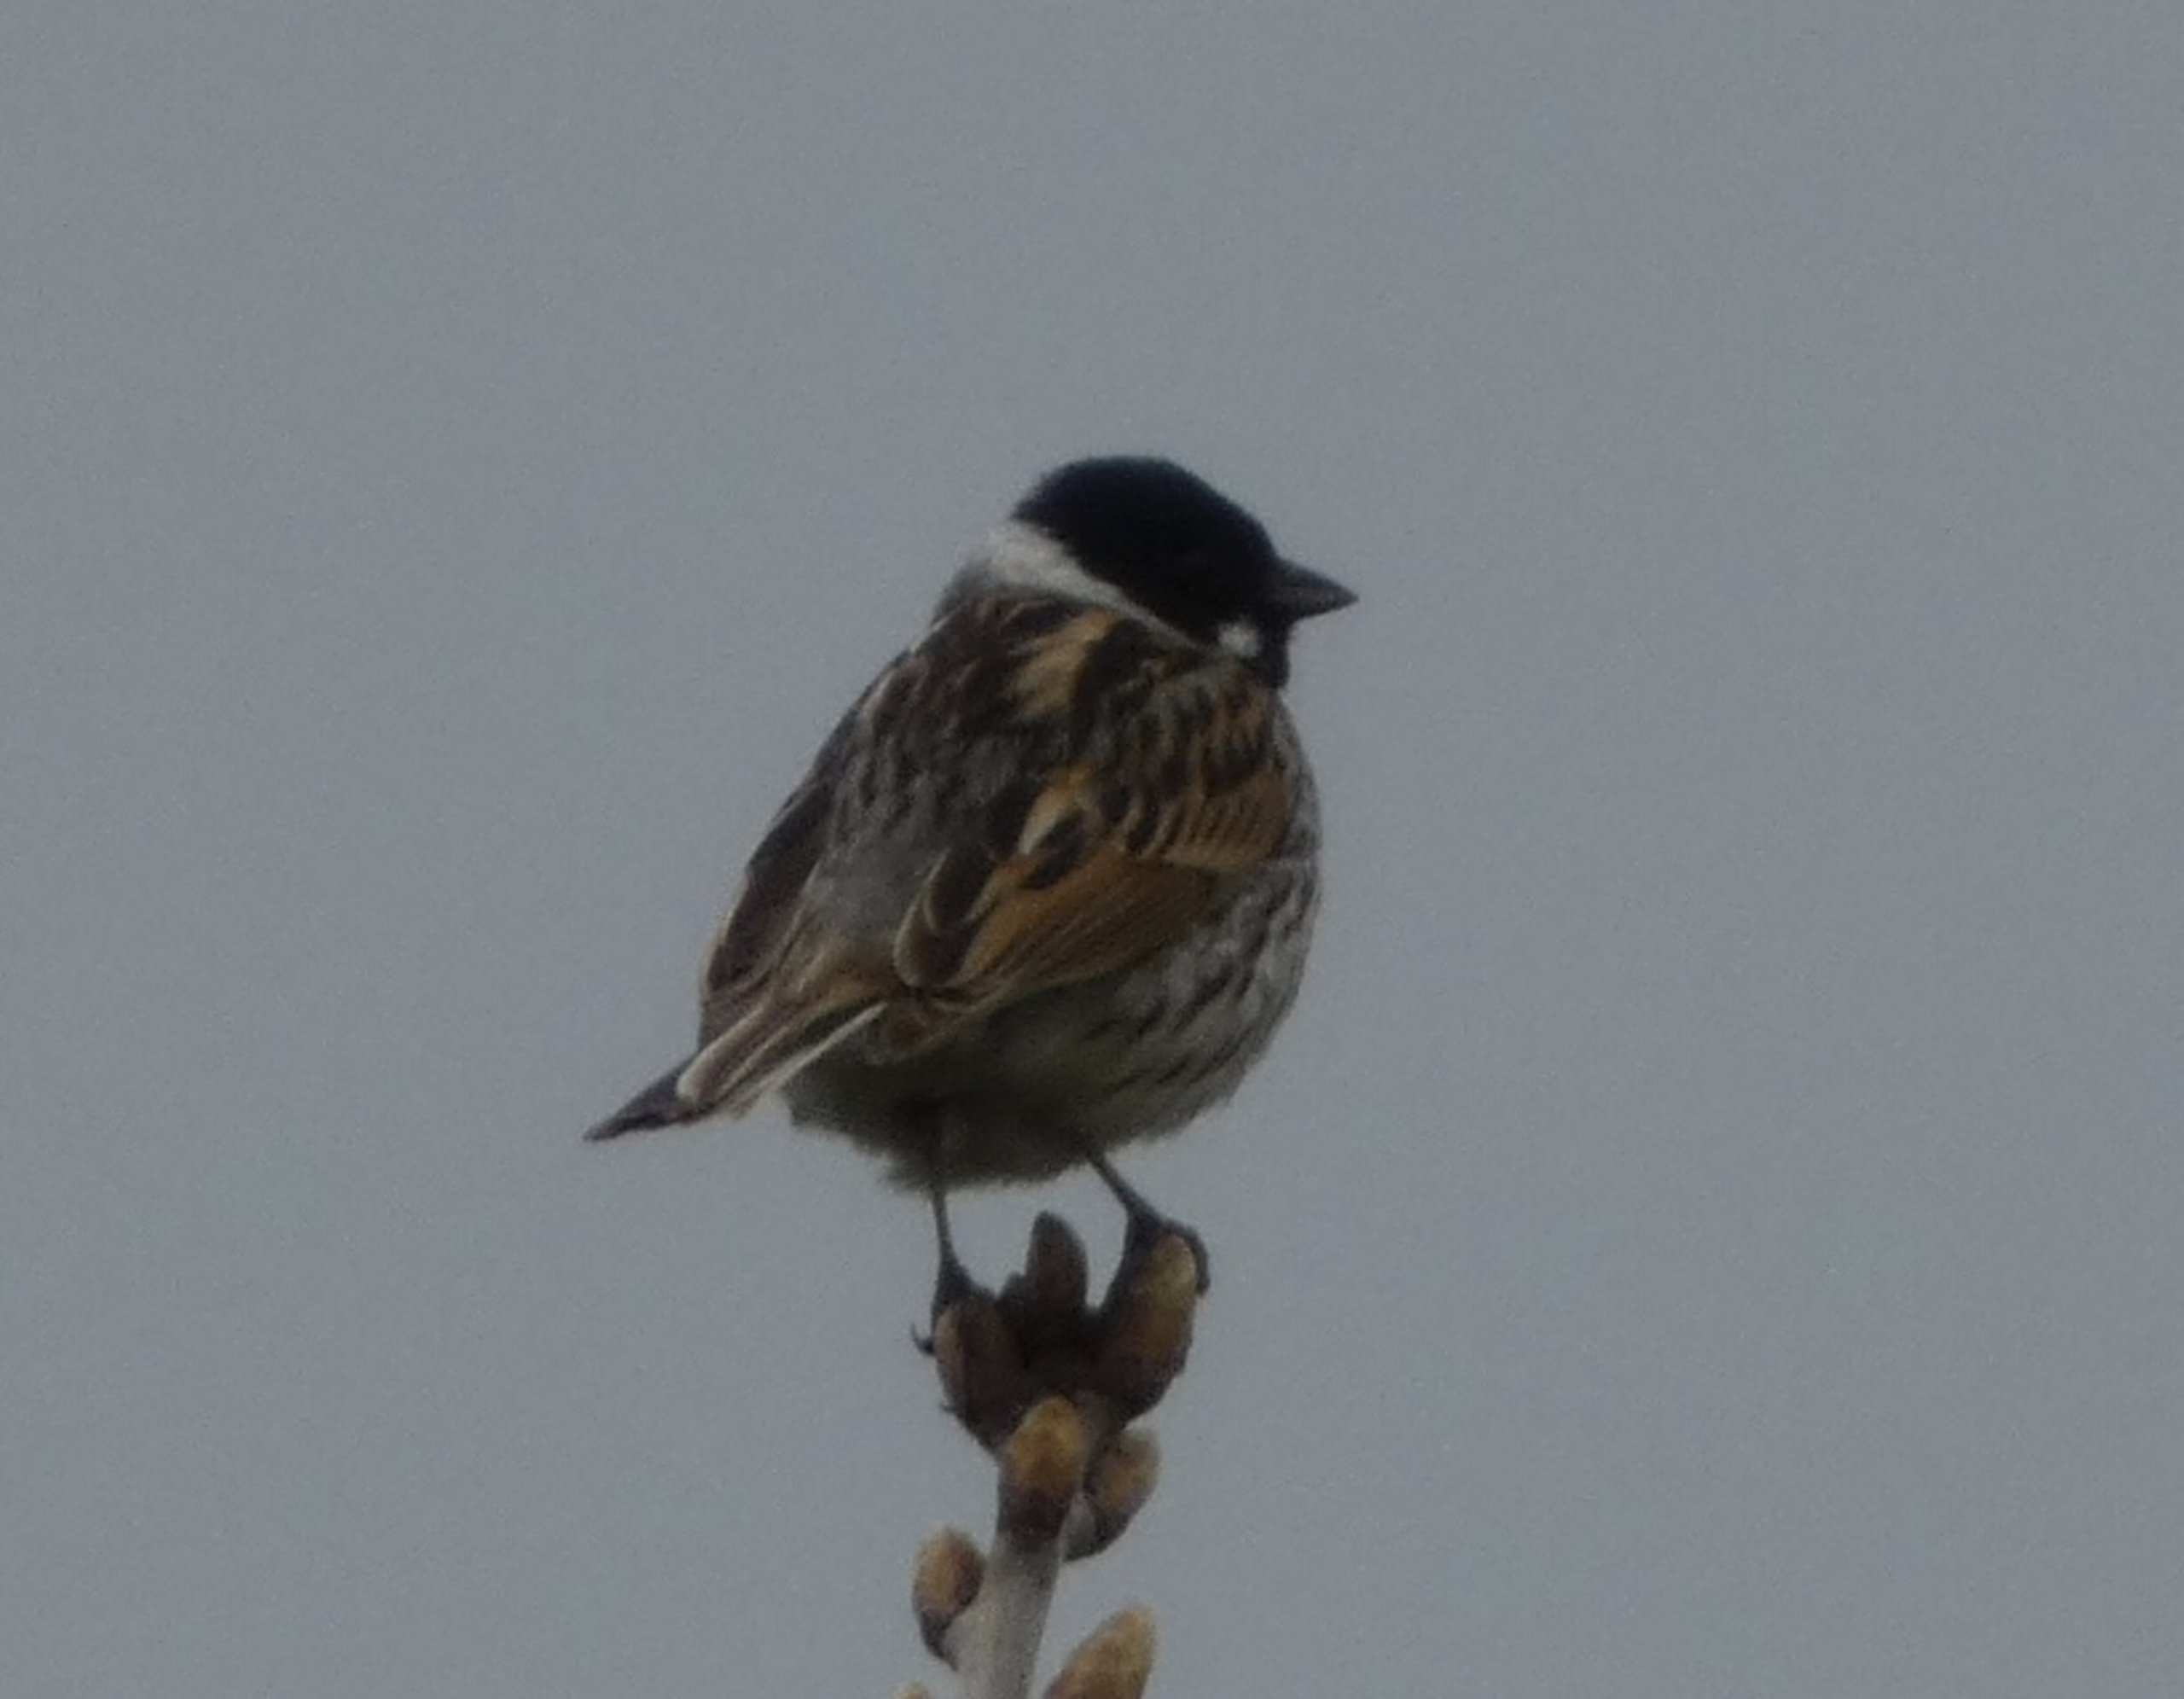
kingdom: Animalia
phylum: Chordata
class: Aves
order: Passeriformes
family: Emberizidae
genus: Emberiza
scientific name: Emberiza schoeniclus
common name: Rørspurv
